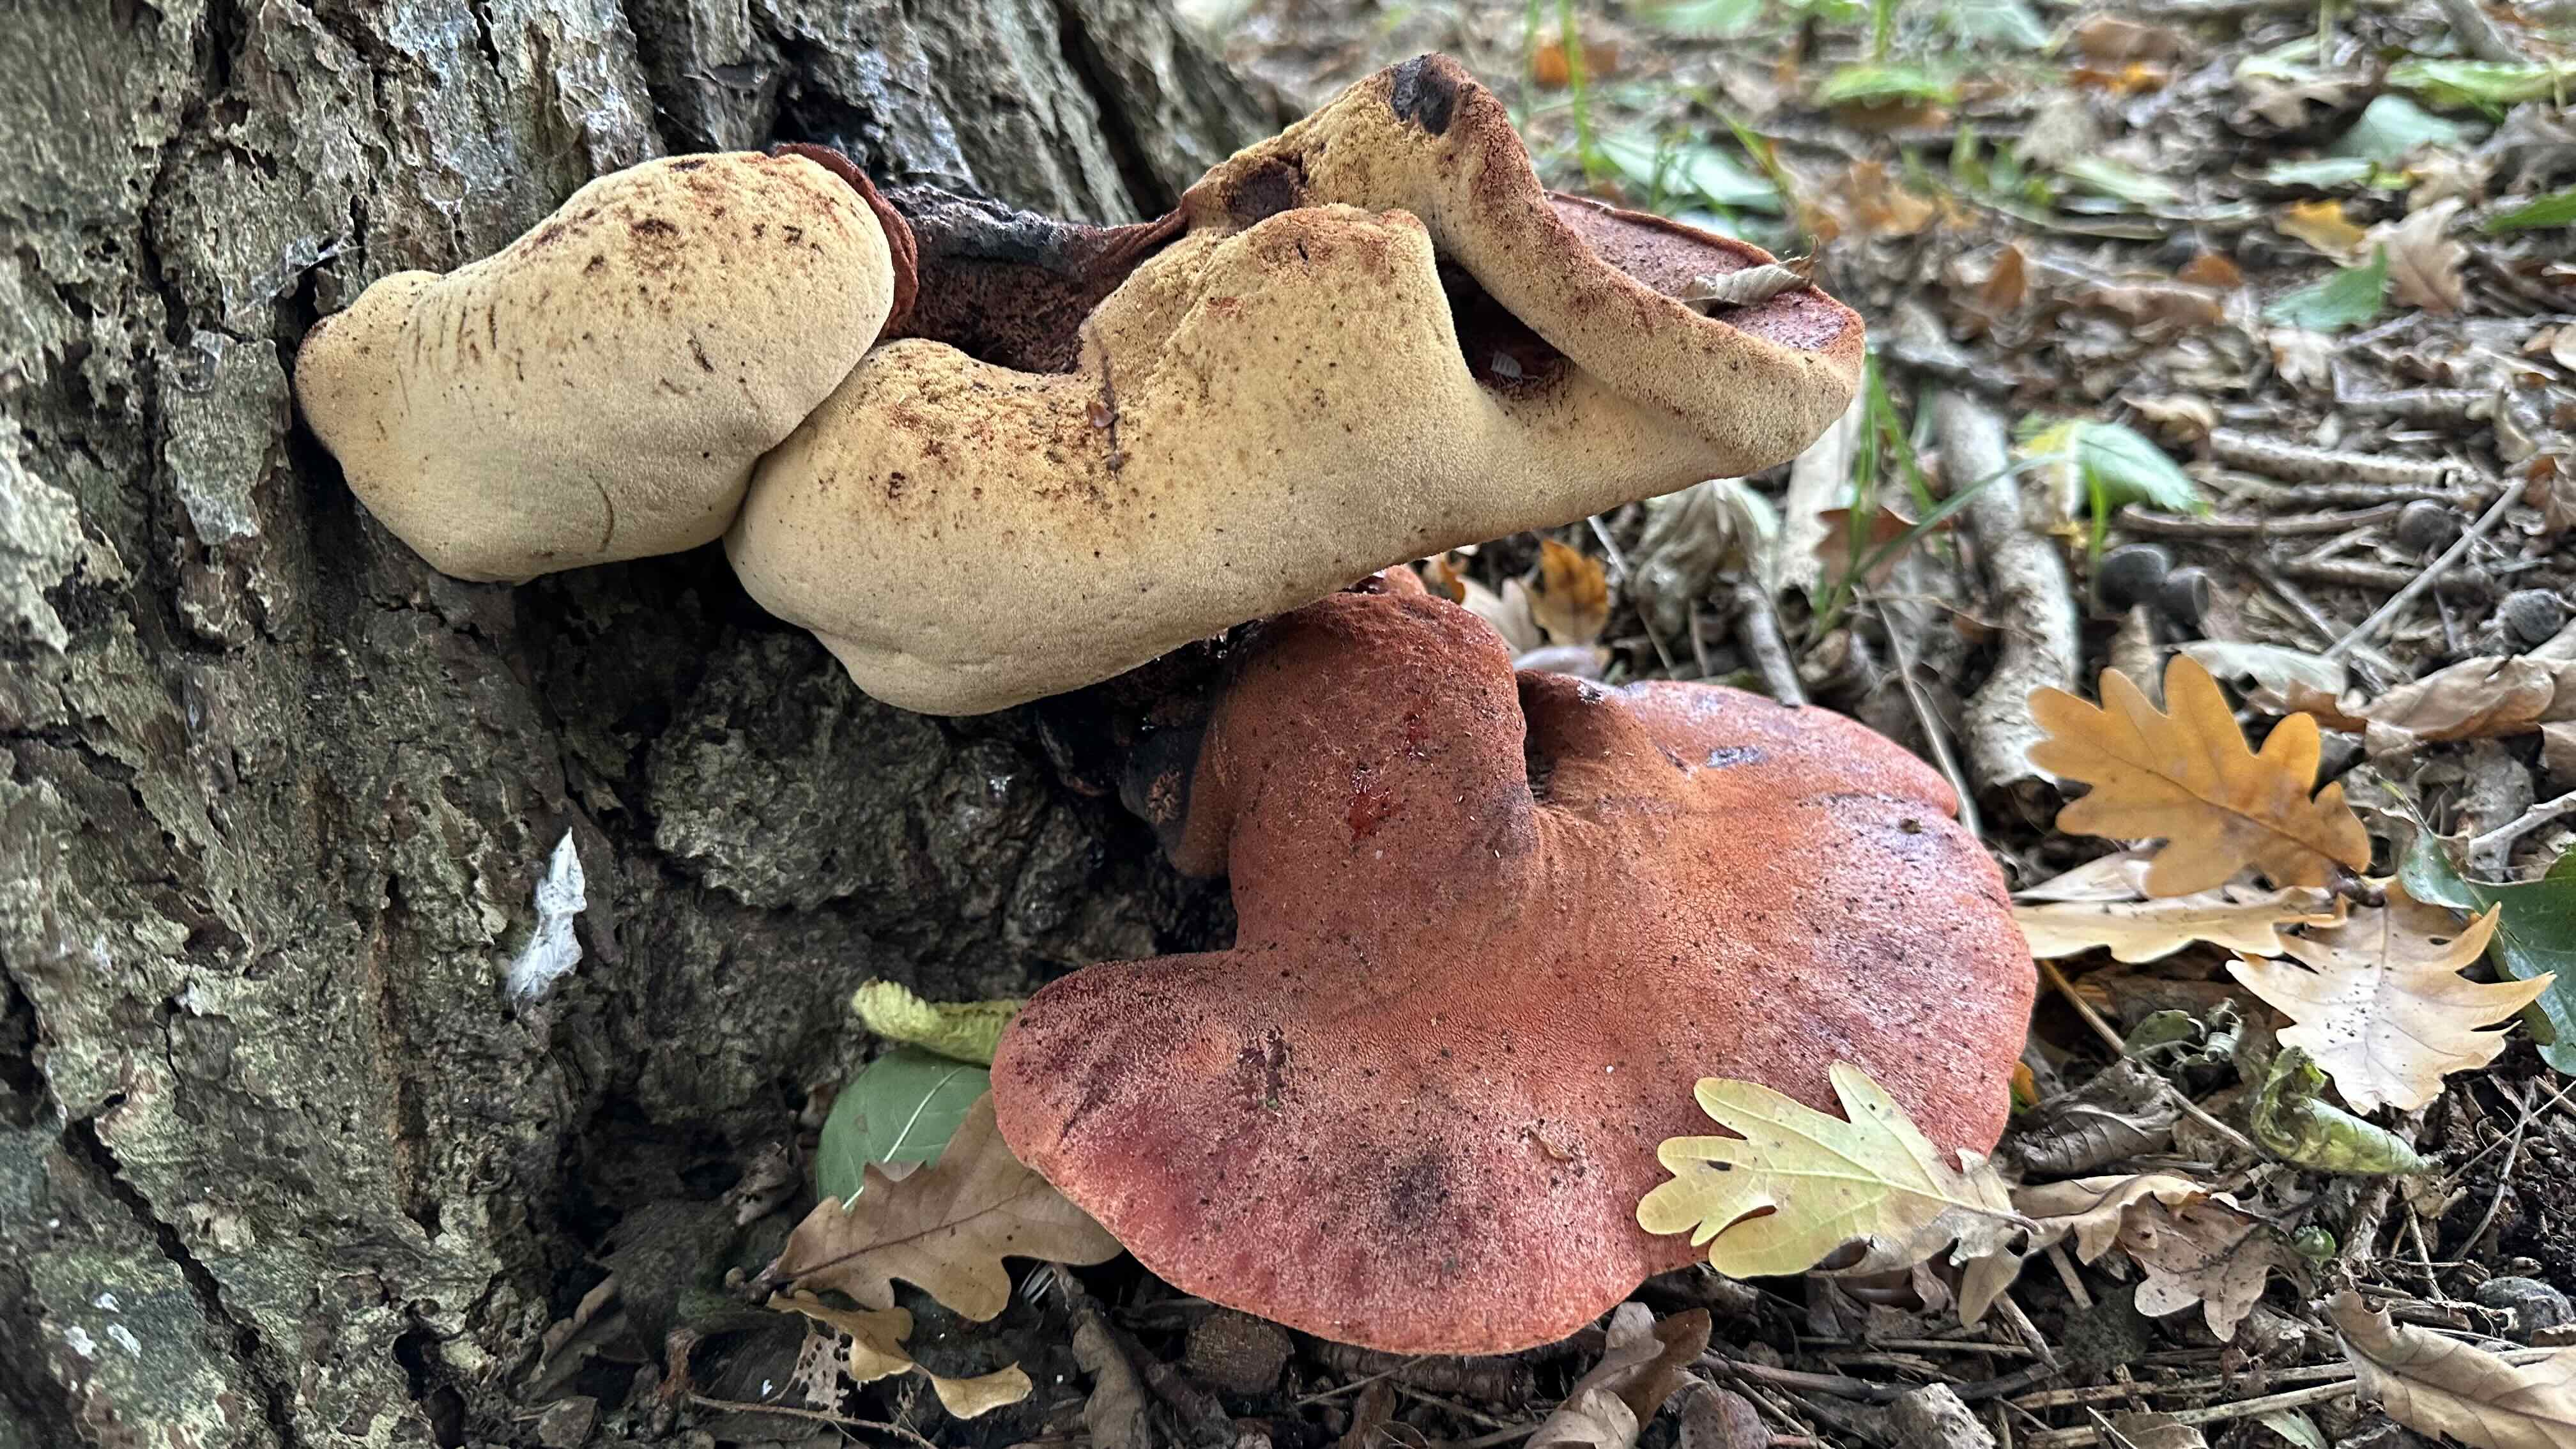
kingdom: Fungi
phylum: Basidiomycota
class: Agaricomycetes
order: Agaricales
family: Fistulinaceae
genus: Fistulina
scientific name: Fistulina hepatica
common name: oksetunge
